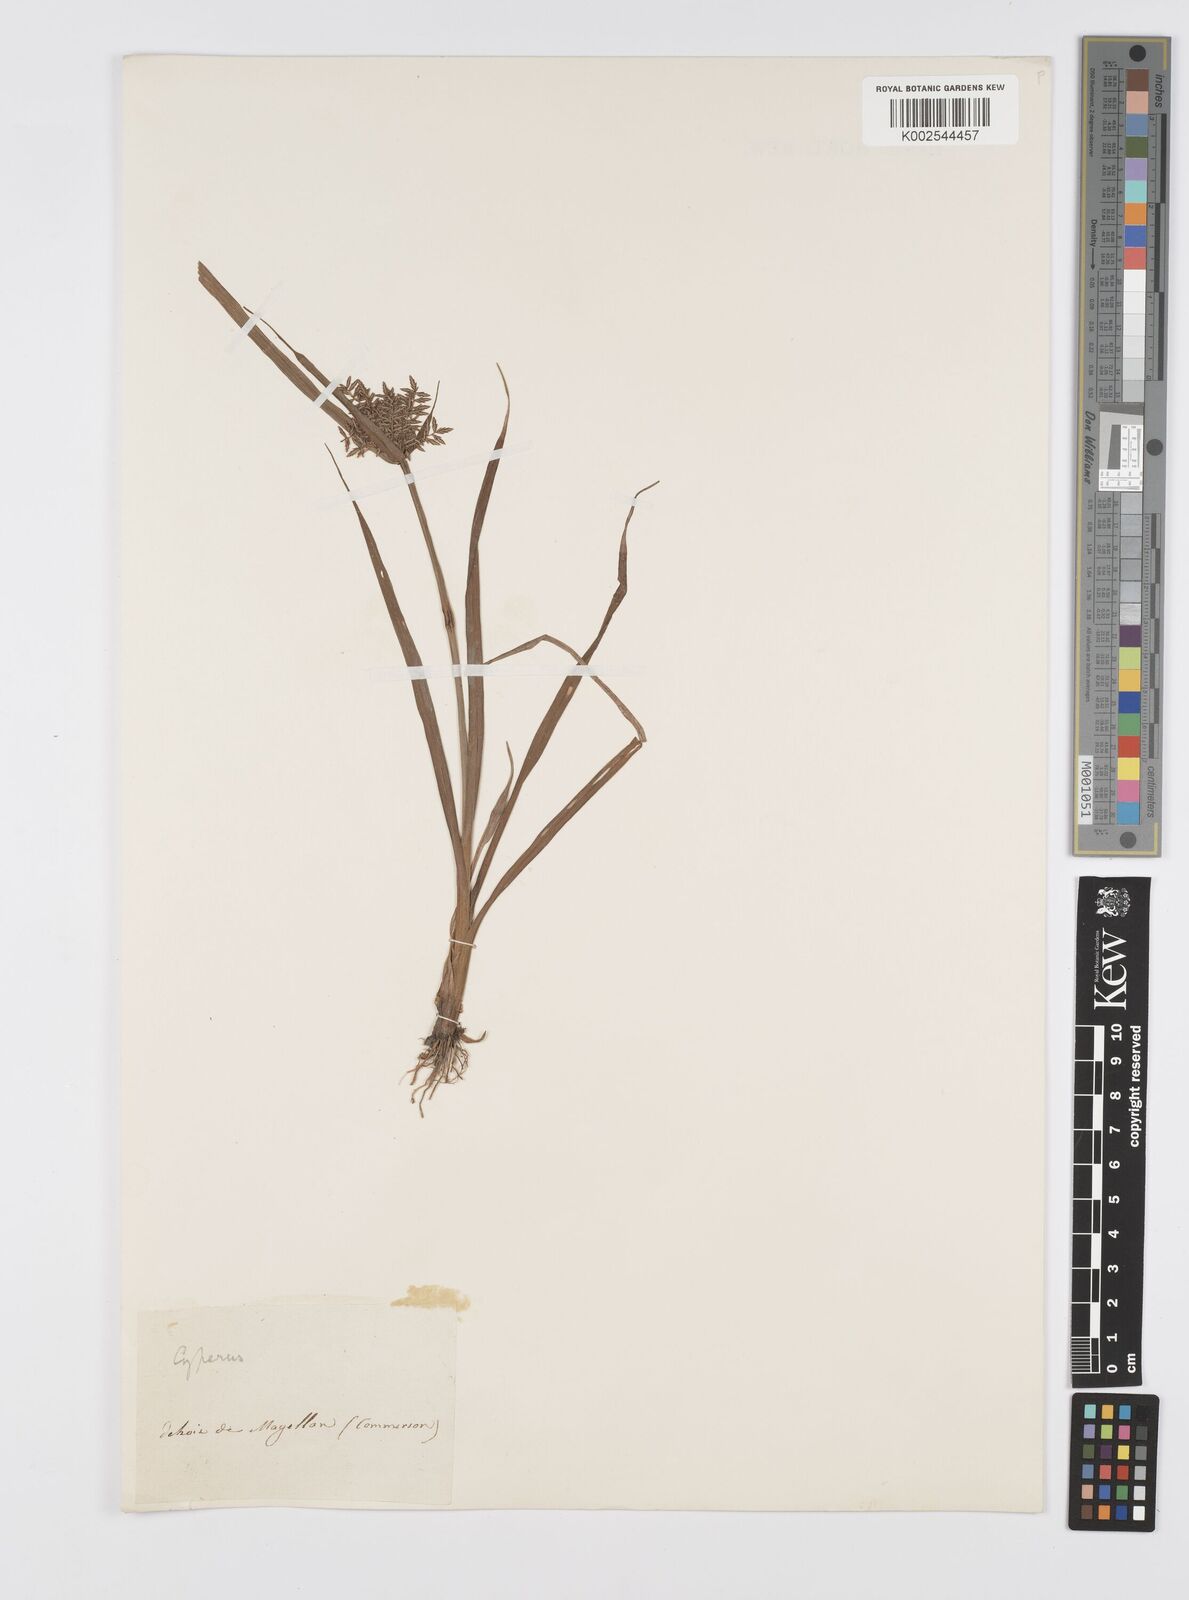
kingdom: Plantae
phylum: Tracheophyta
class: Liliopsida
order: Poales
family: Cyperaceae
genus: Cyperus
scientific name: Cyperus
